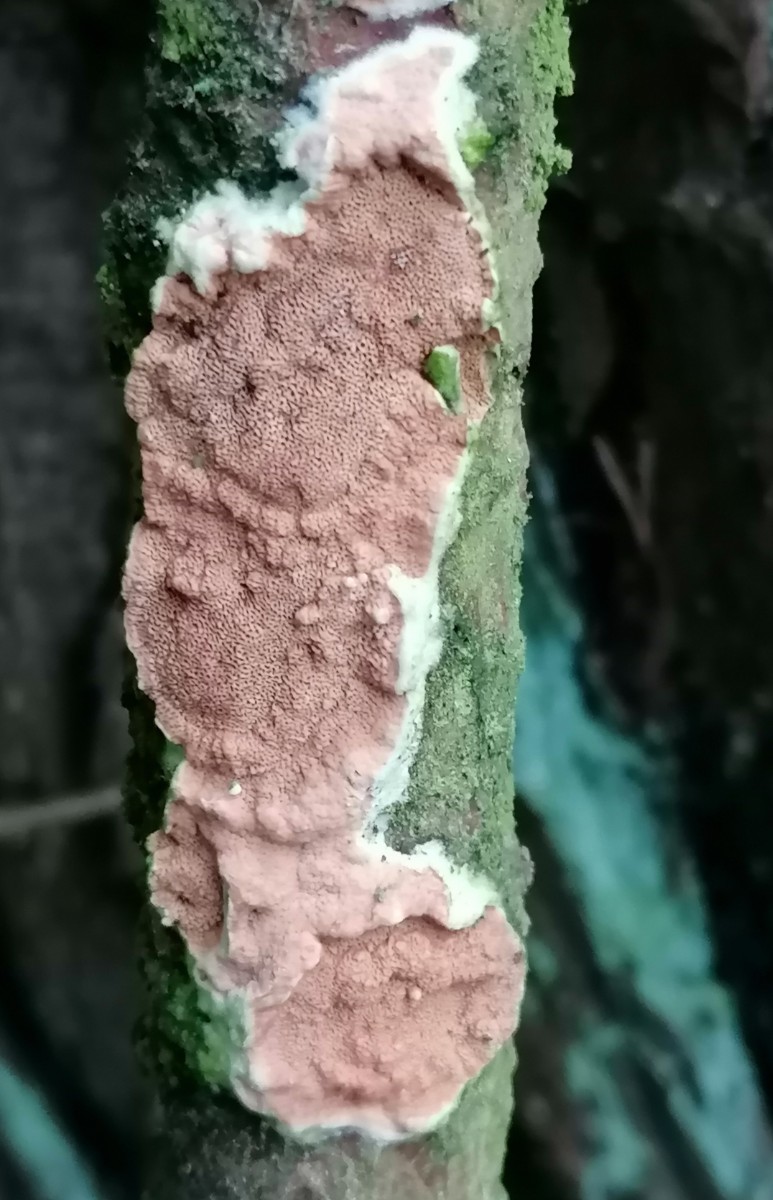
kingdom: Fungi
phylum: Basidiomycota
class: Agaricomycetes
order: Polyporales
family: Irpicaceae
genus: Meruliopsis
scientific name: Meruliopsis taxicola
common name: purpurbrun foldporesvamp
